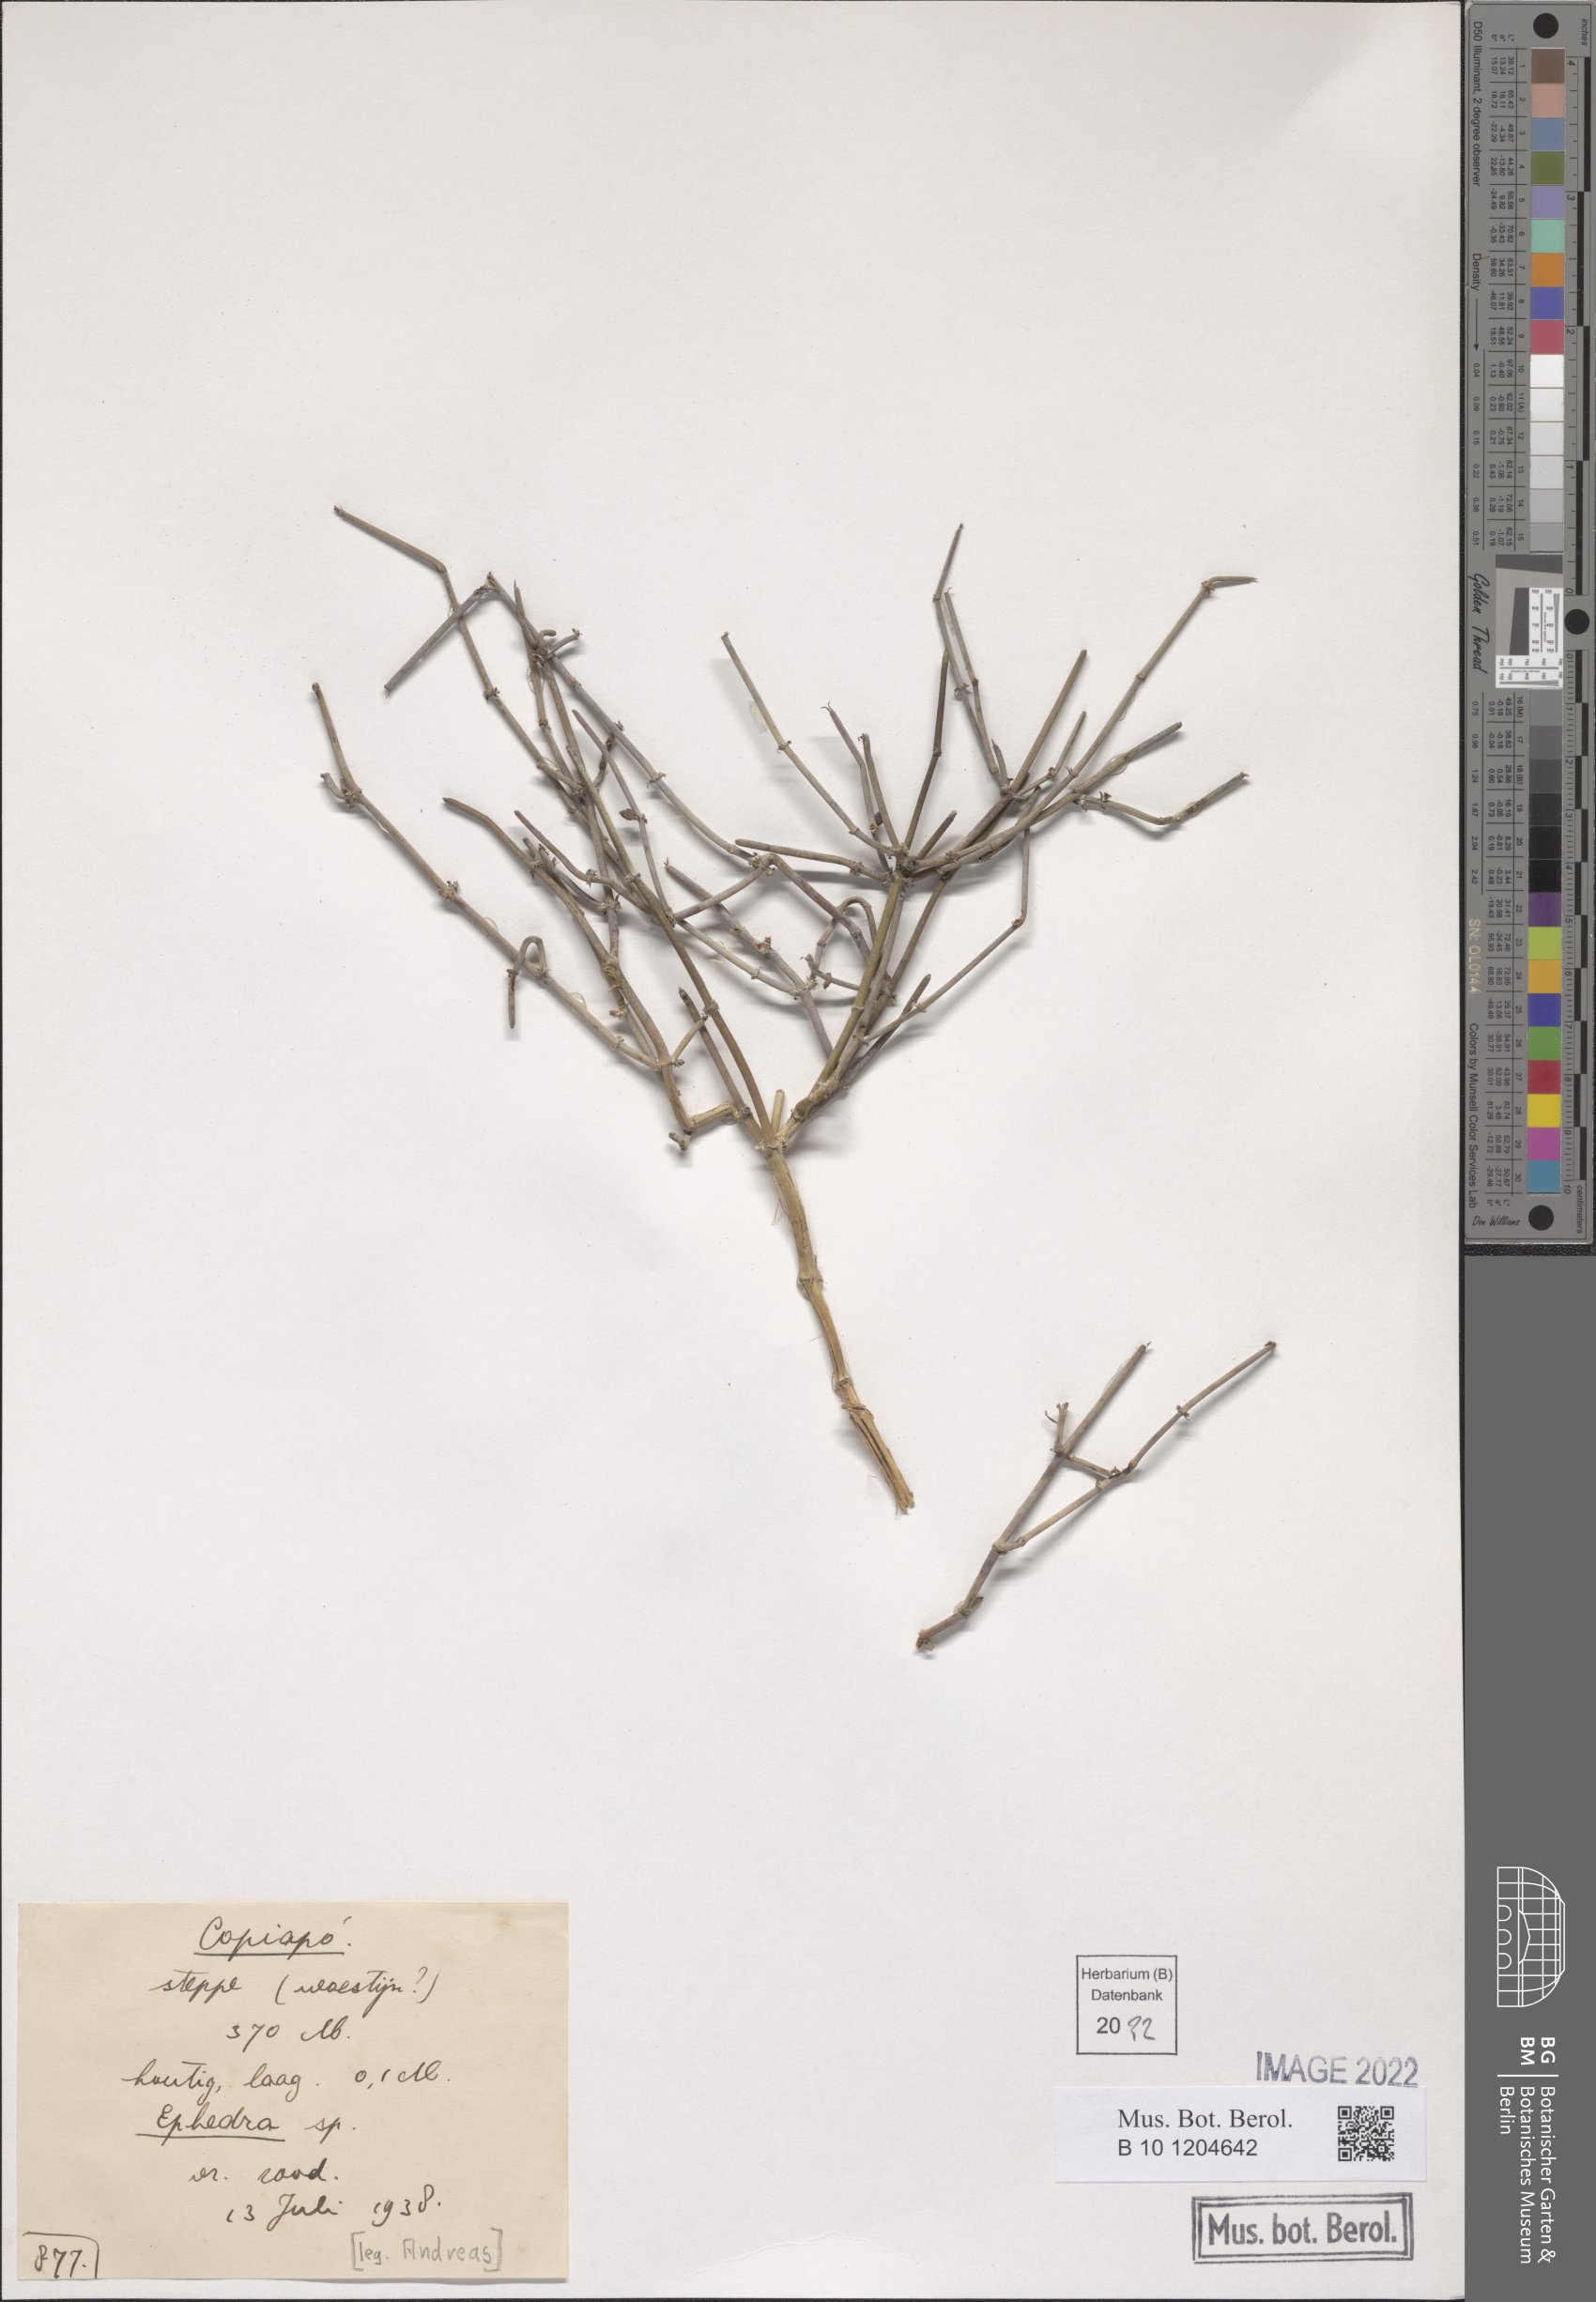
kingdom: Plantae
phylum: Tracheophyta
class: Gnetopsida
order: Ephedrales
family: Ephedraceae
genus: Ephedra
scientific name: Ephedra
